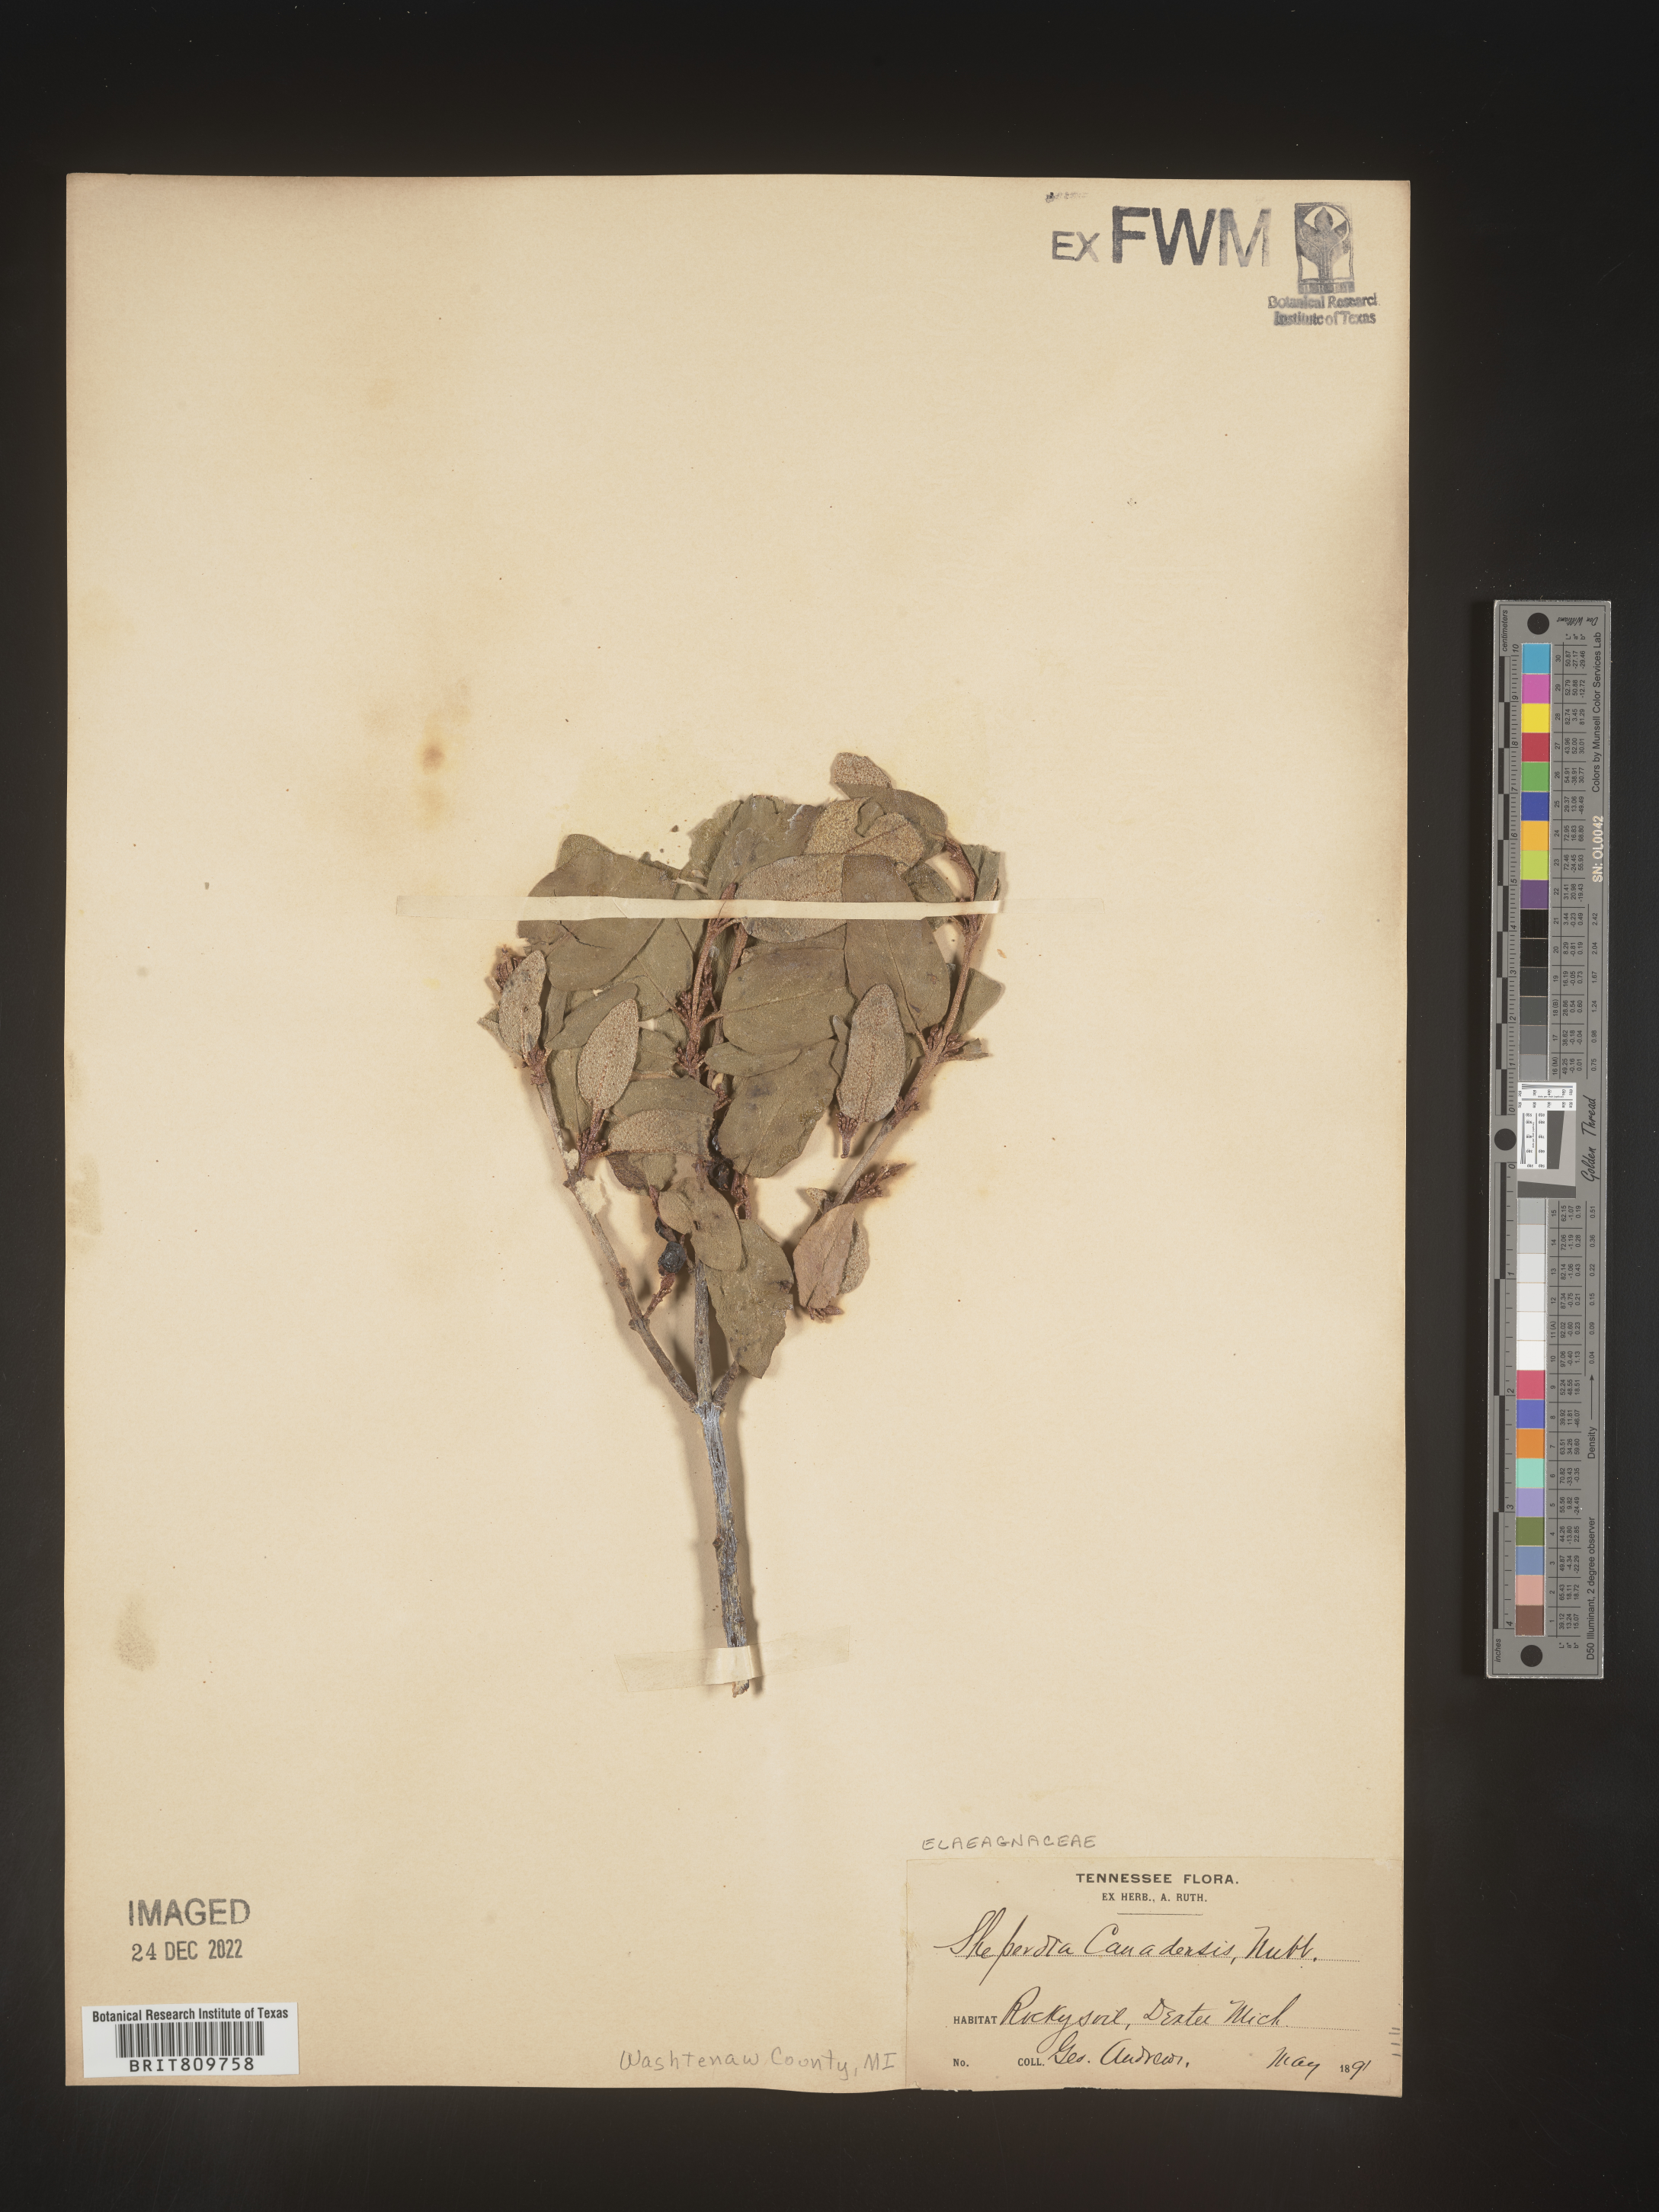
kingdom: Plantae
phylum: Tracheophyta
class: Magnoliopsida
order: Rosales
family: Elaeagnaceae
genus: Shepherdia
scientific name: Shepherdia canadensis
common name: Soapberry
